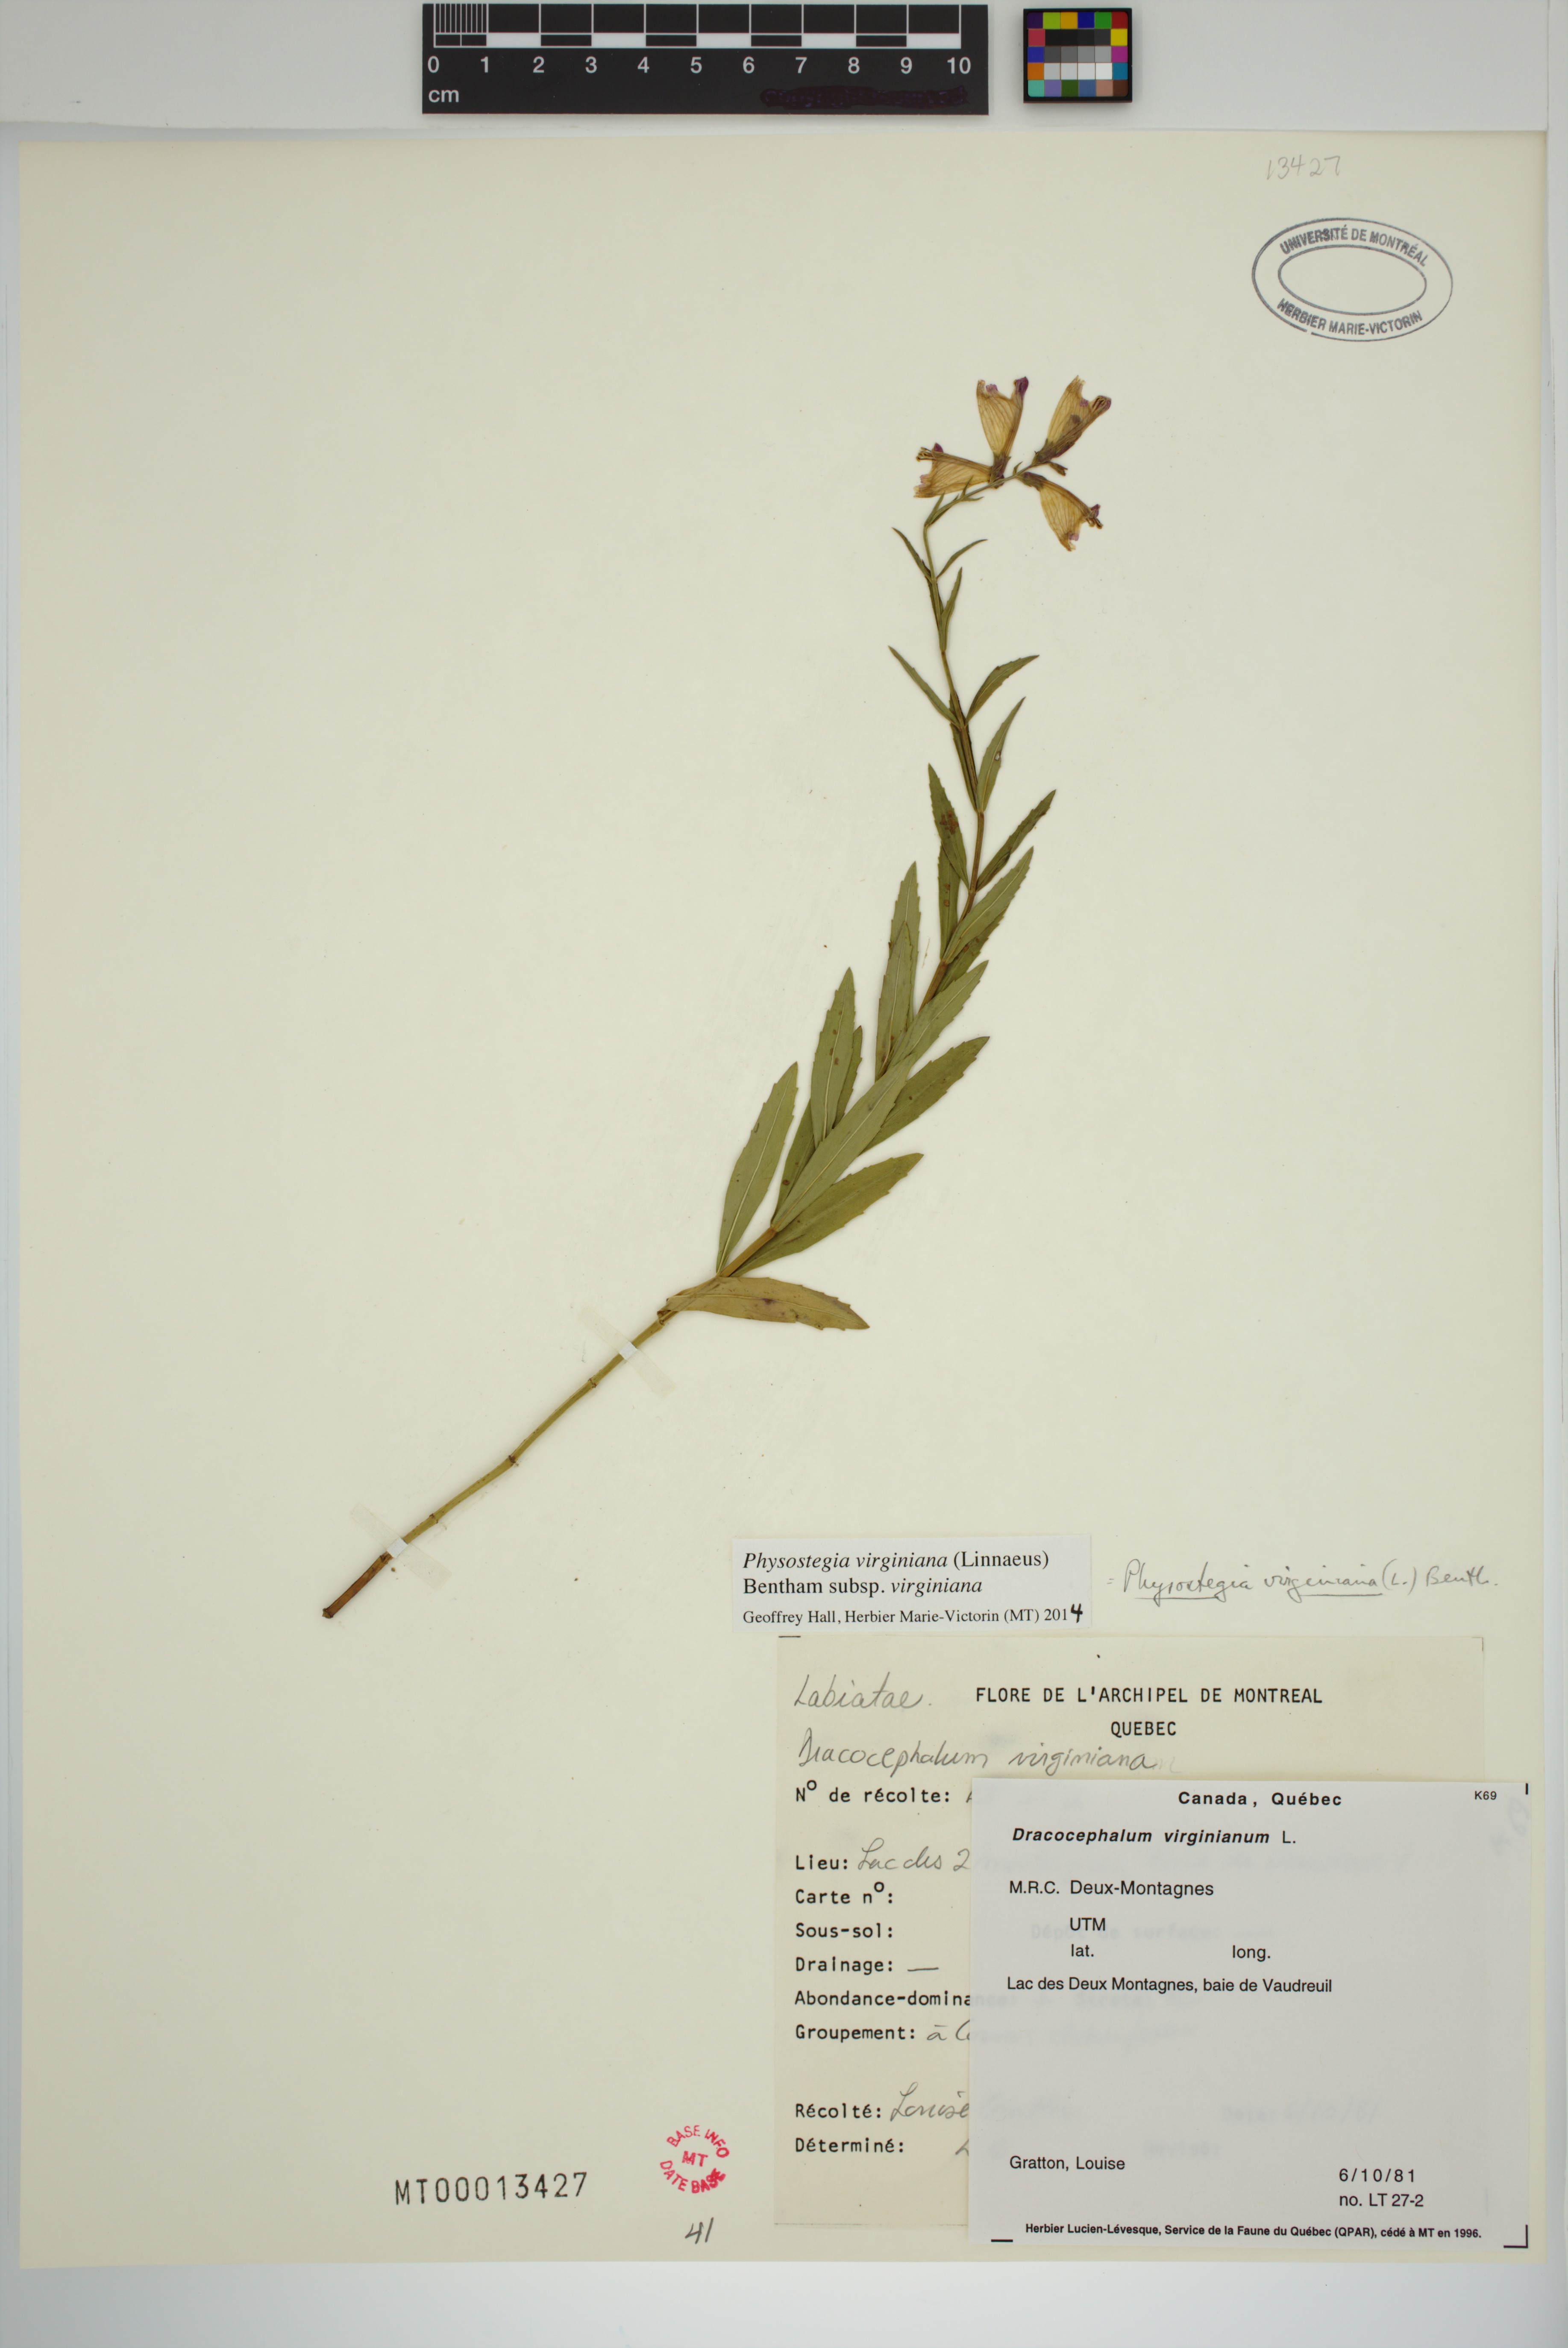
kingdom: Plantae
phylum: Tracheophyta
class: Magnoliopsida
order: Lamiales
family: Lamiaceae
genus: Physostegia
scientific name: Physostegia virginiana
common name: Obedient-plant
